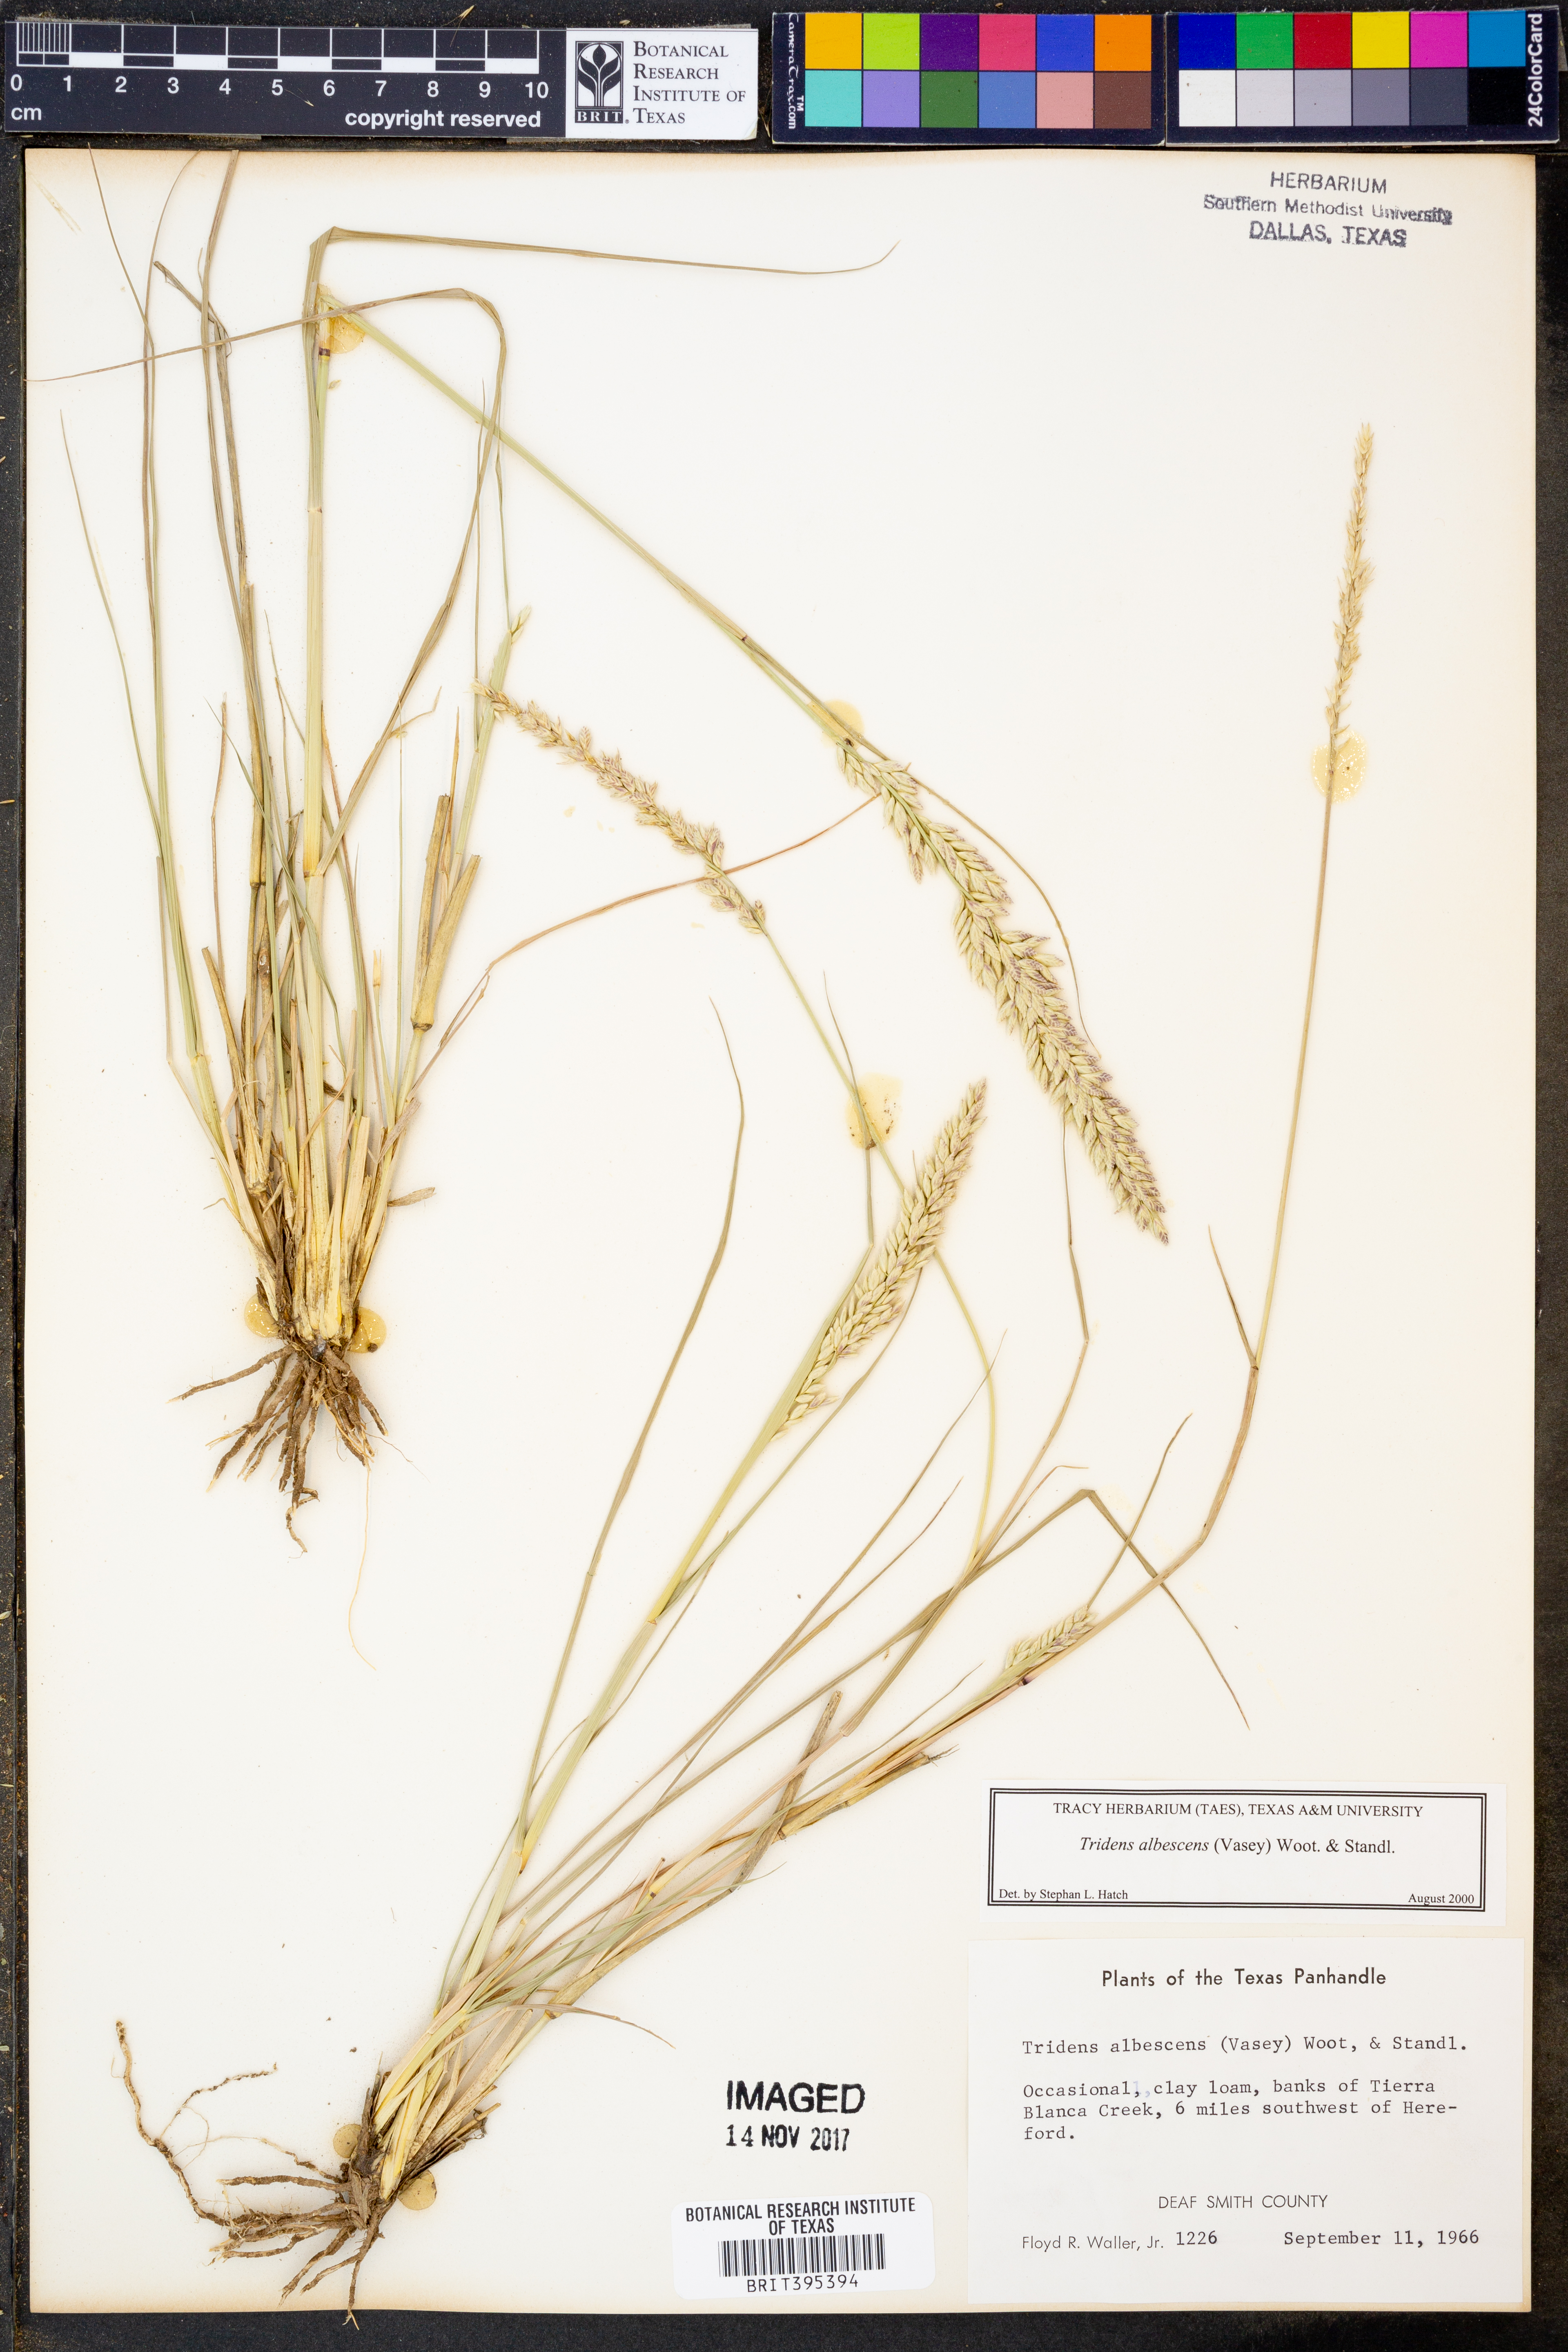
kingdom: Plantae
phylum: Tracheophyta
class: Liliopsida
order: Poales
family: Poaceae
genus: Tridens
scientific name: Tridens albescens
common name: White tridens
